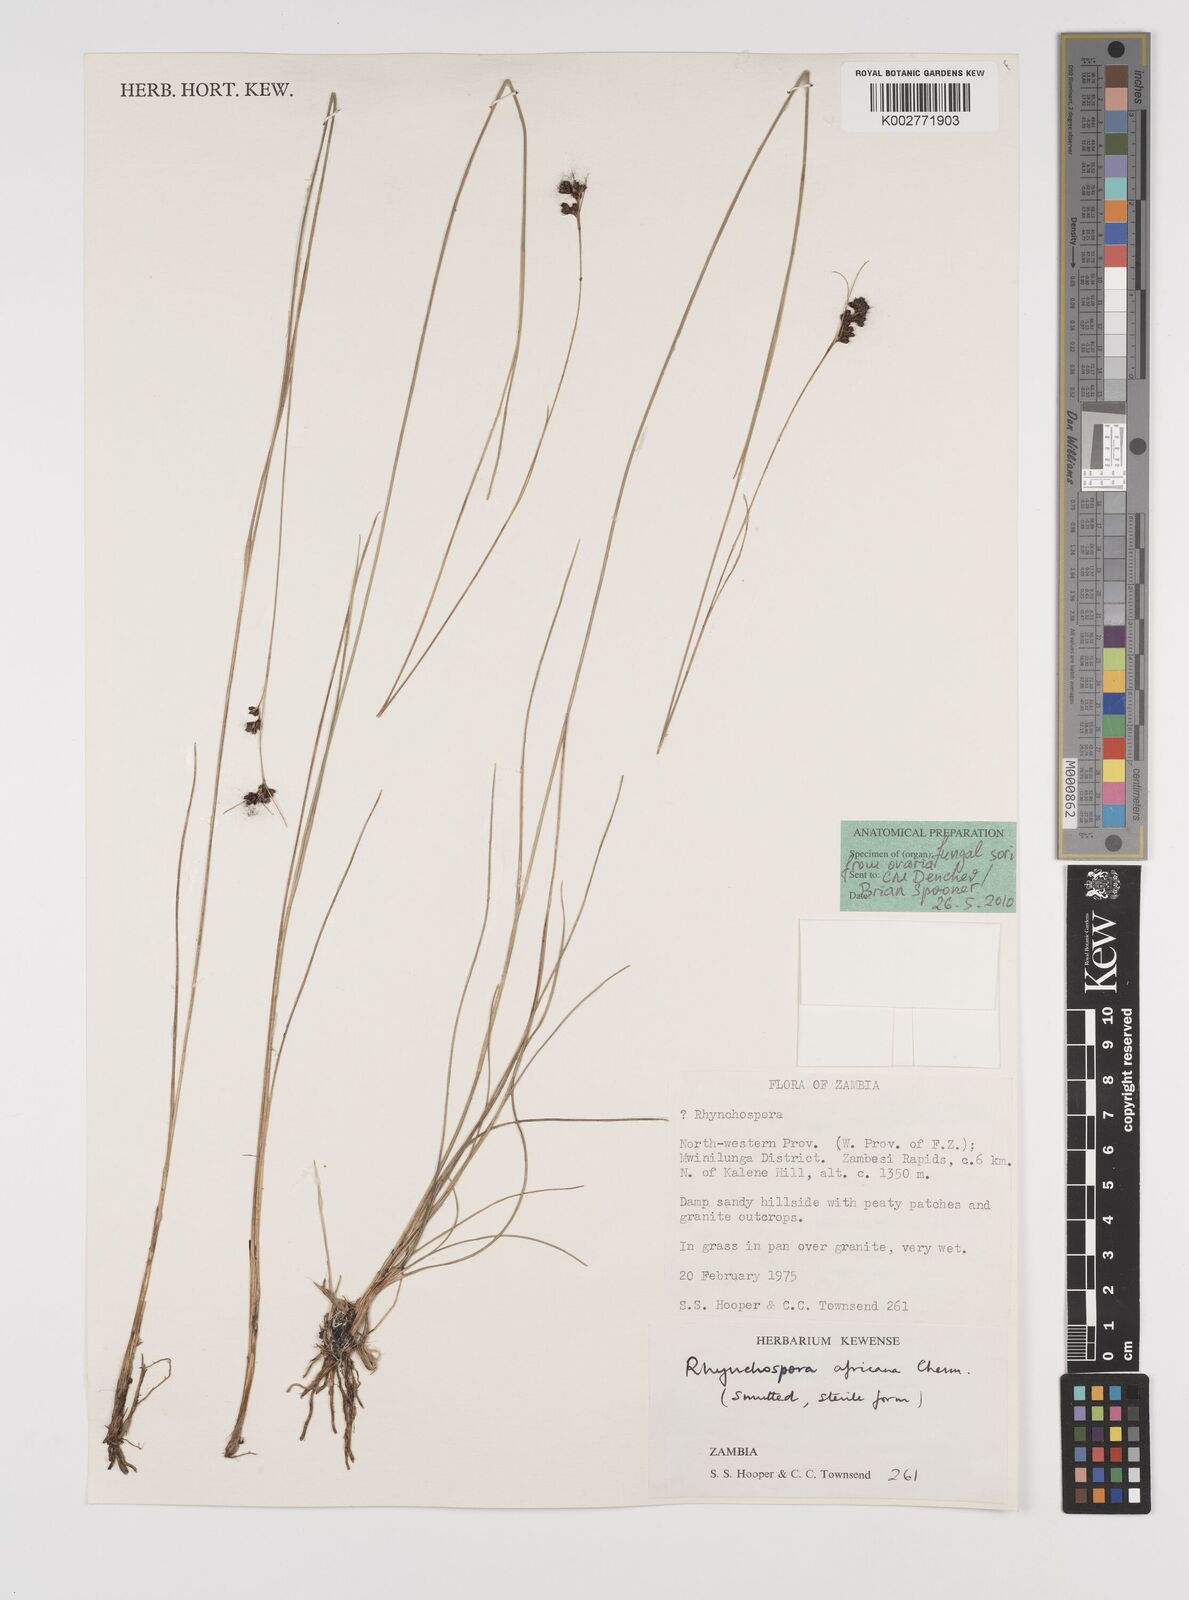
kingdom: Plantae
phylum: Tracheophyta
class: Liliopsida
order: Poales
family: Cyperaceae
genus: Rhynchospora
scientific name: Rhynchospora angolensis
